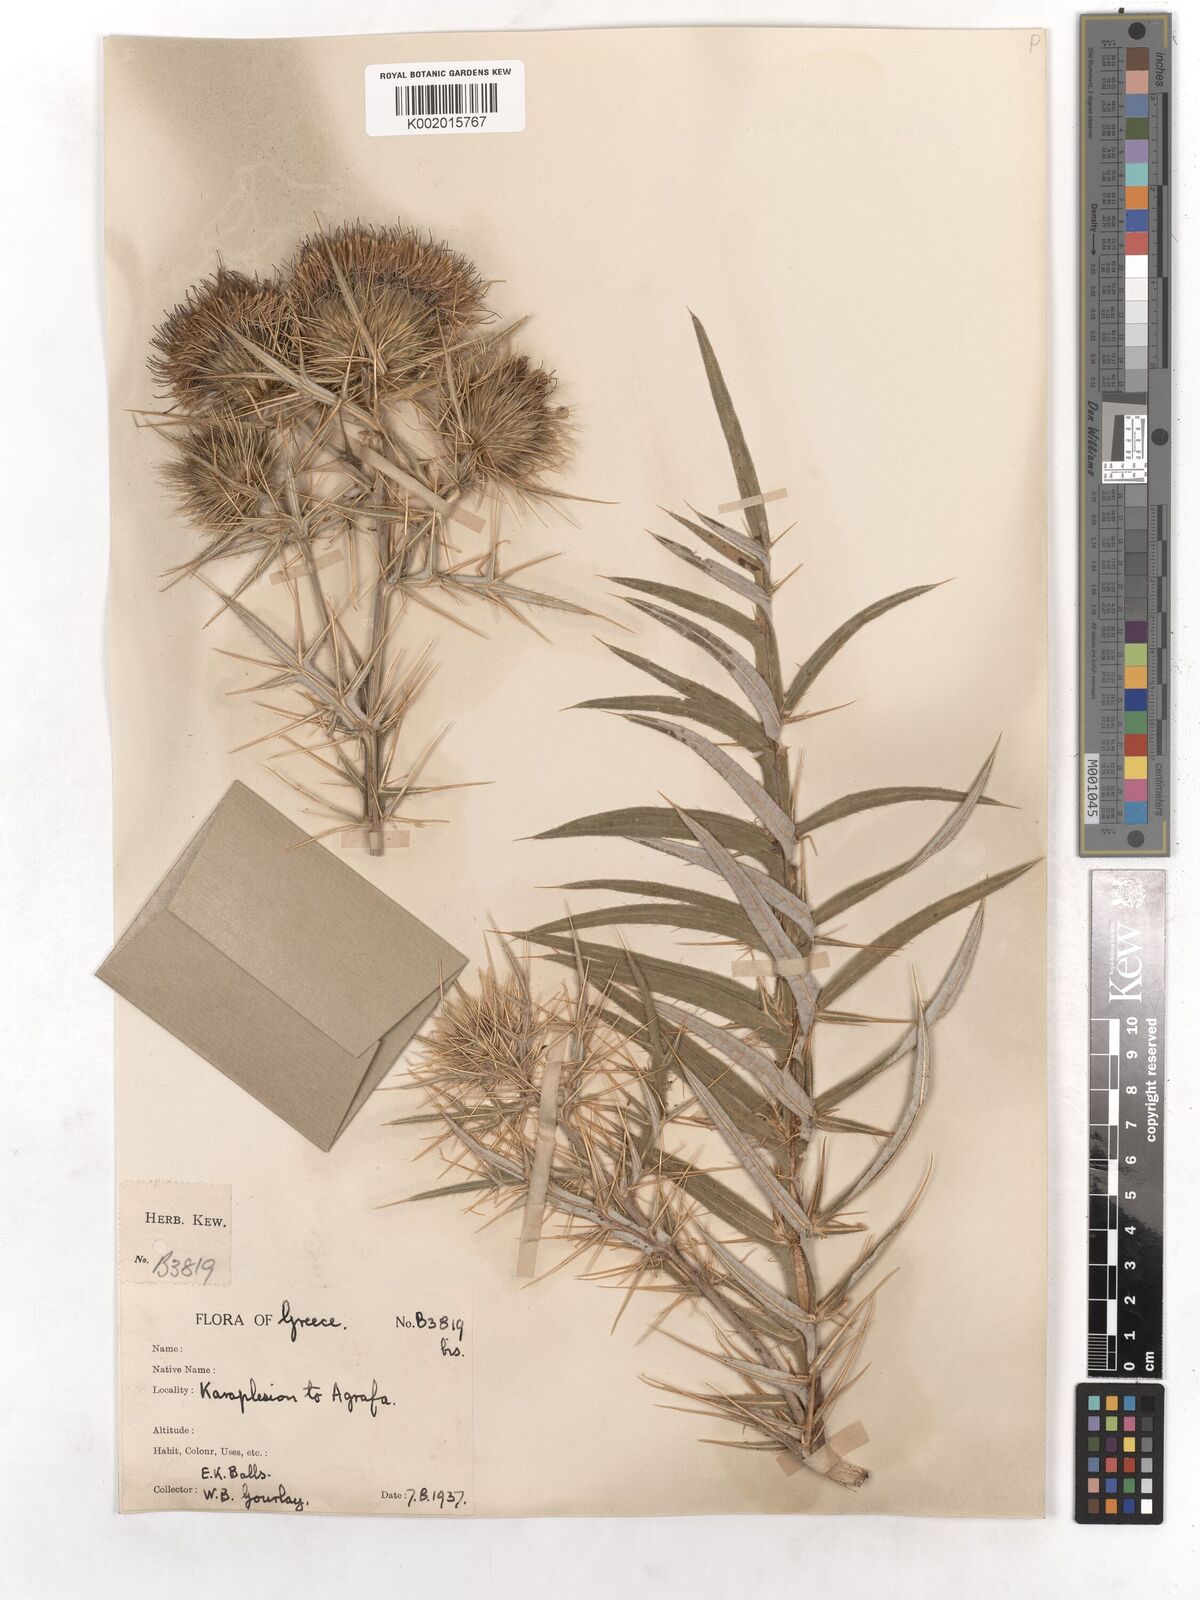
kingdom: Plantae
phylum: Tracheophyta
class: Magnoliopsida
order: Asterales
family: Asteraceae
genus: Cirsium
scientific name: Cirsium filipendulum
